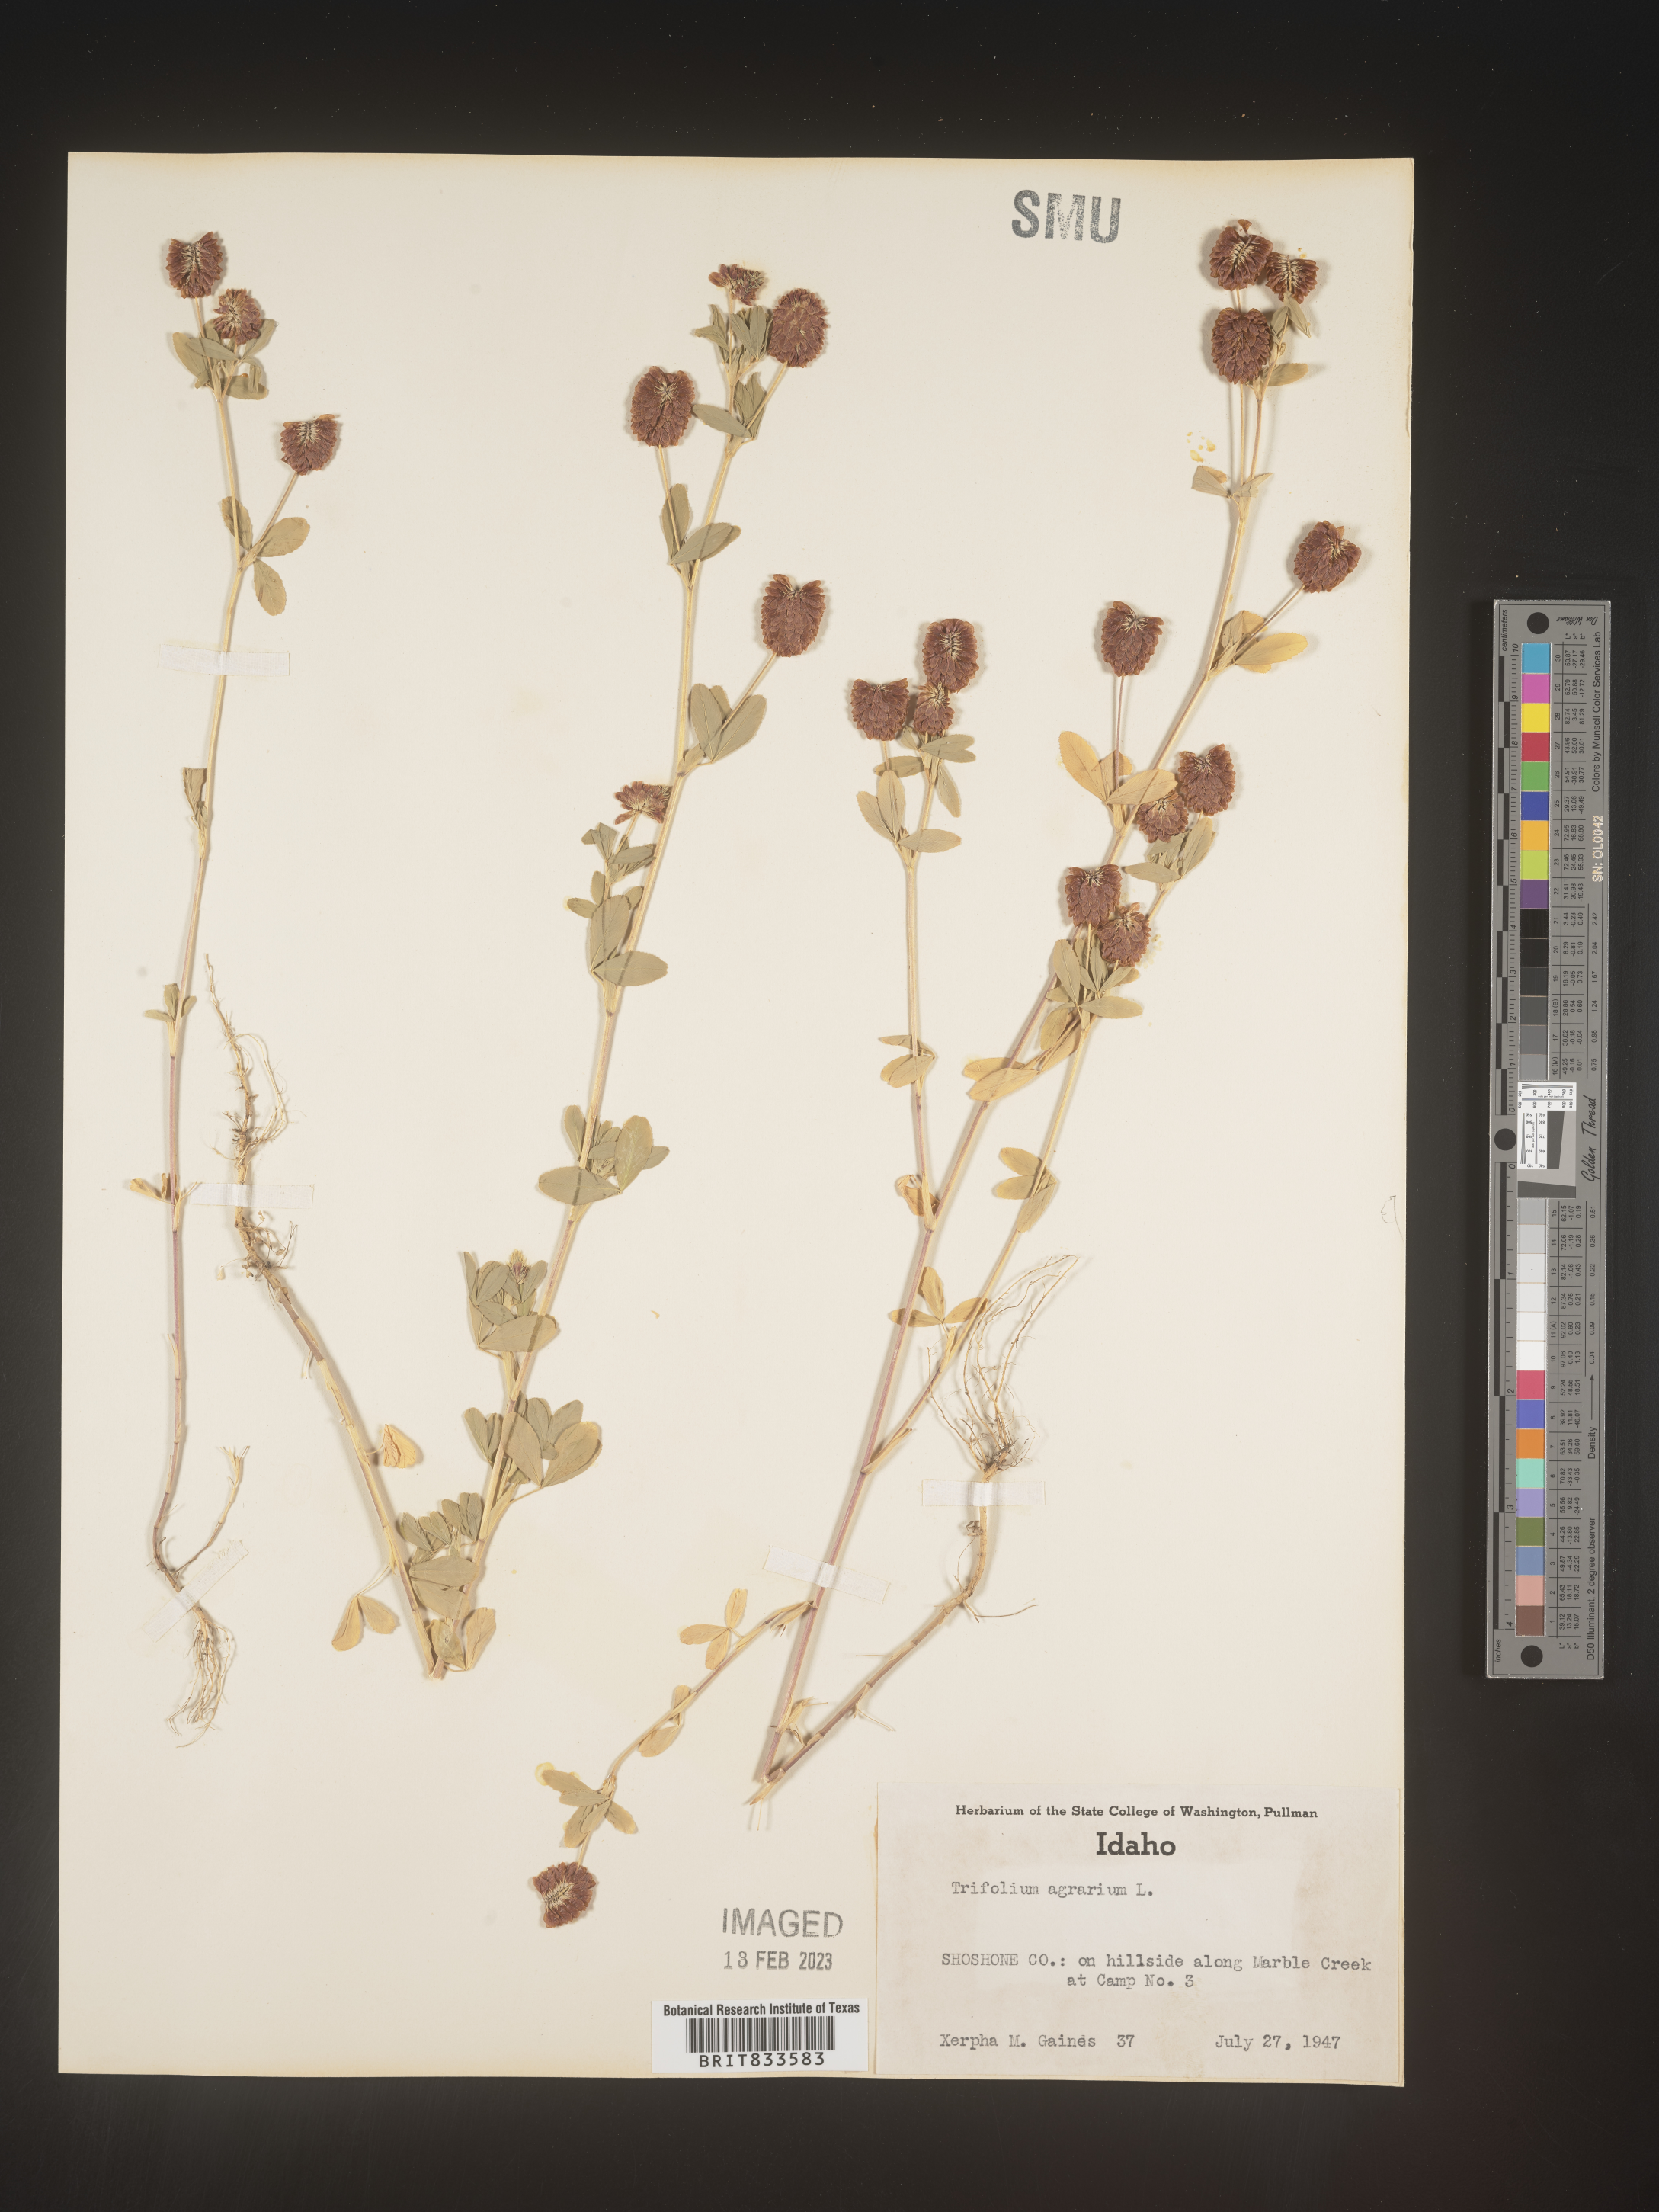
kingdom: Plantae
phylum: Tracheophyta
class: Magnoliopsida
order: Fabales
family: Fabaceae
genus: Trifolium
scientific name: Trifolium agrarium
